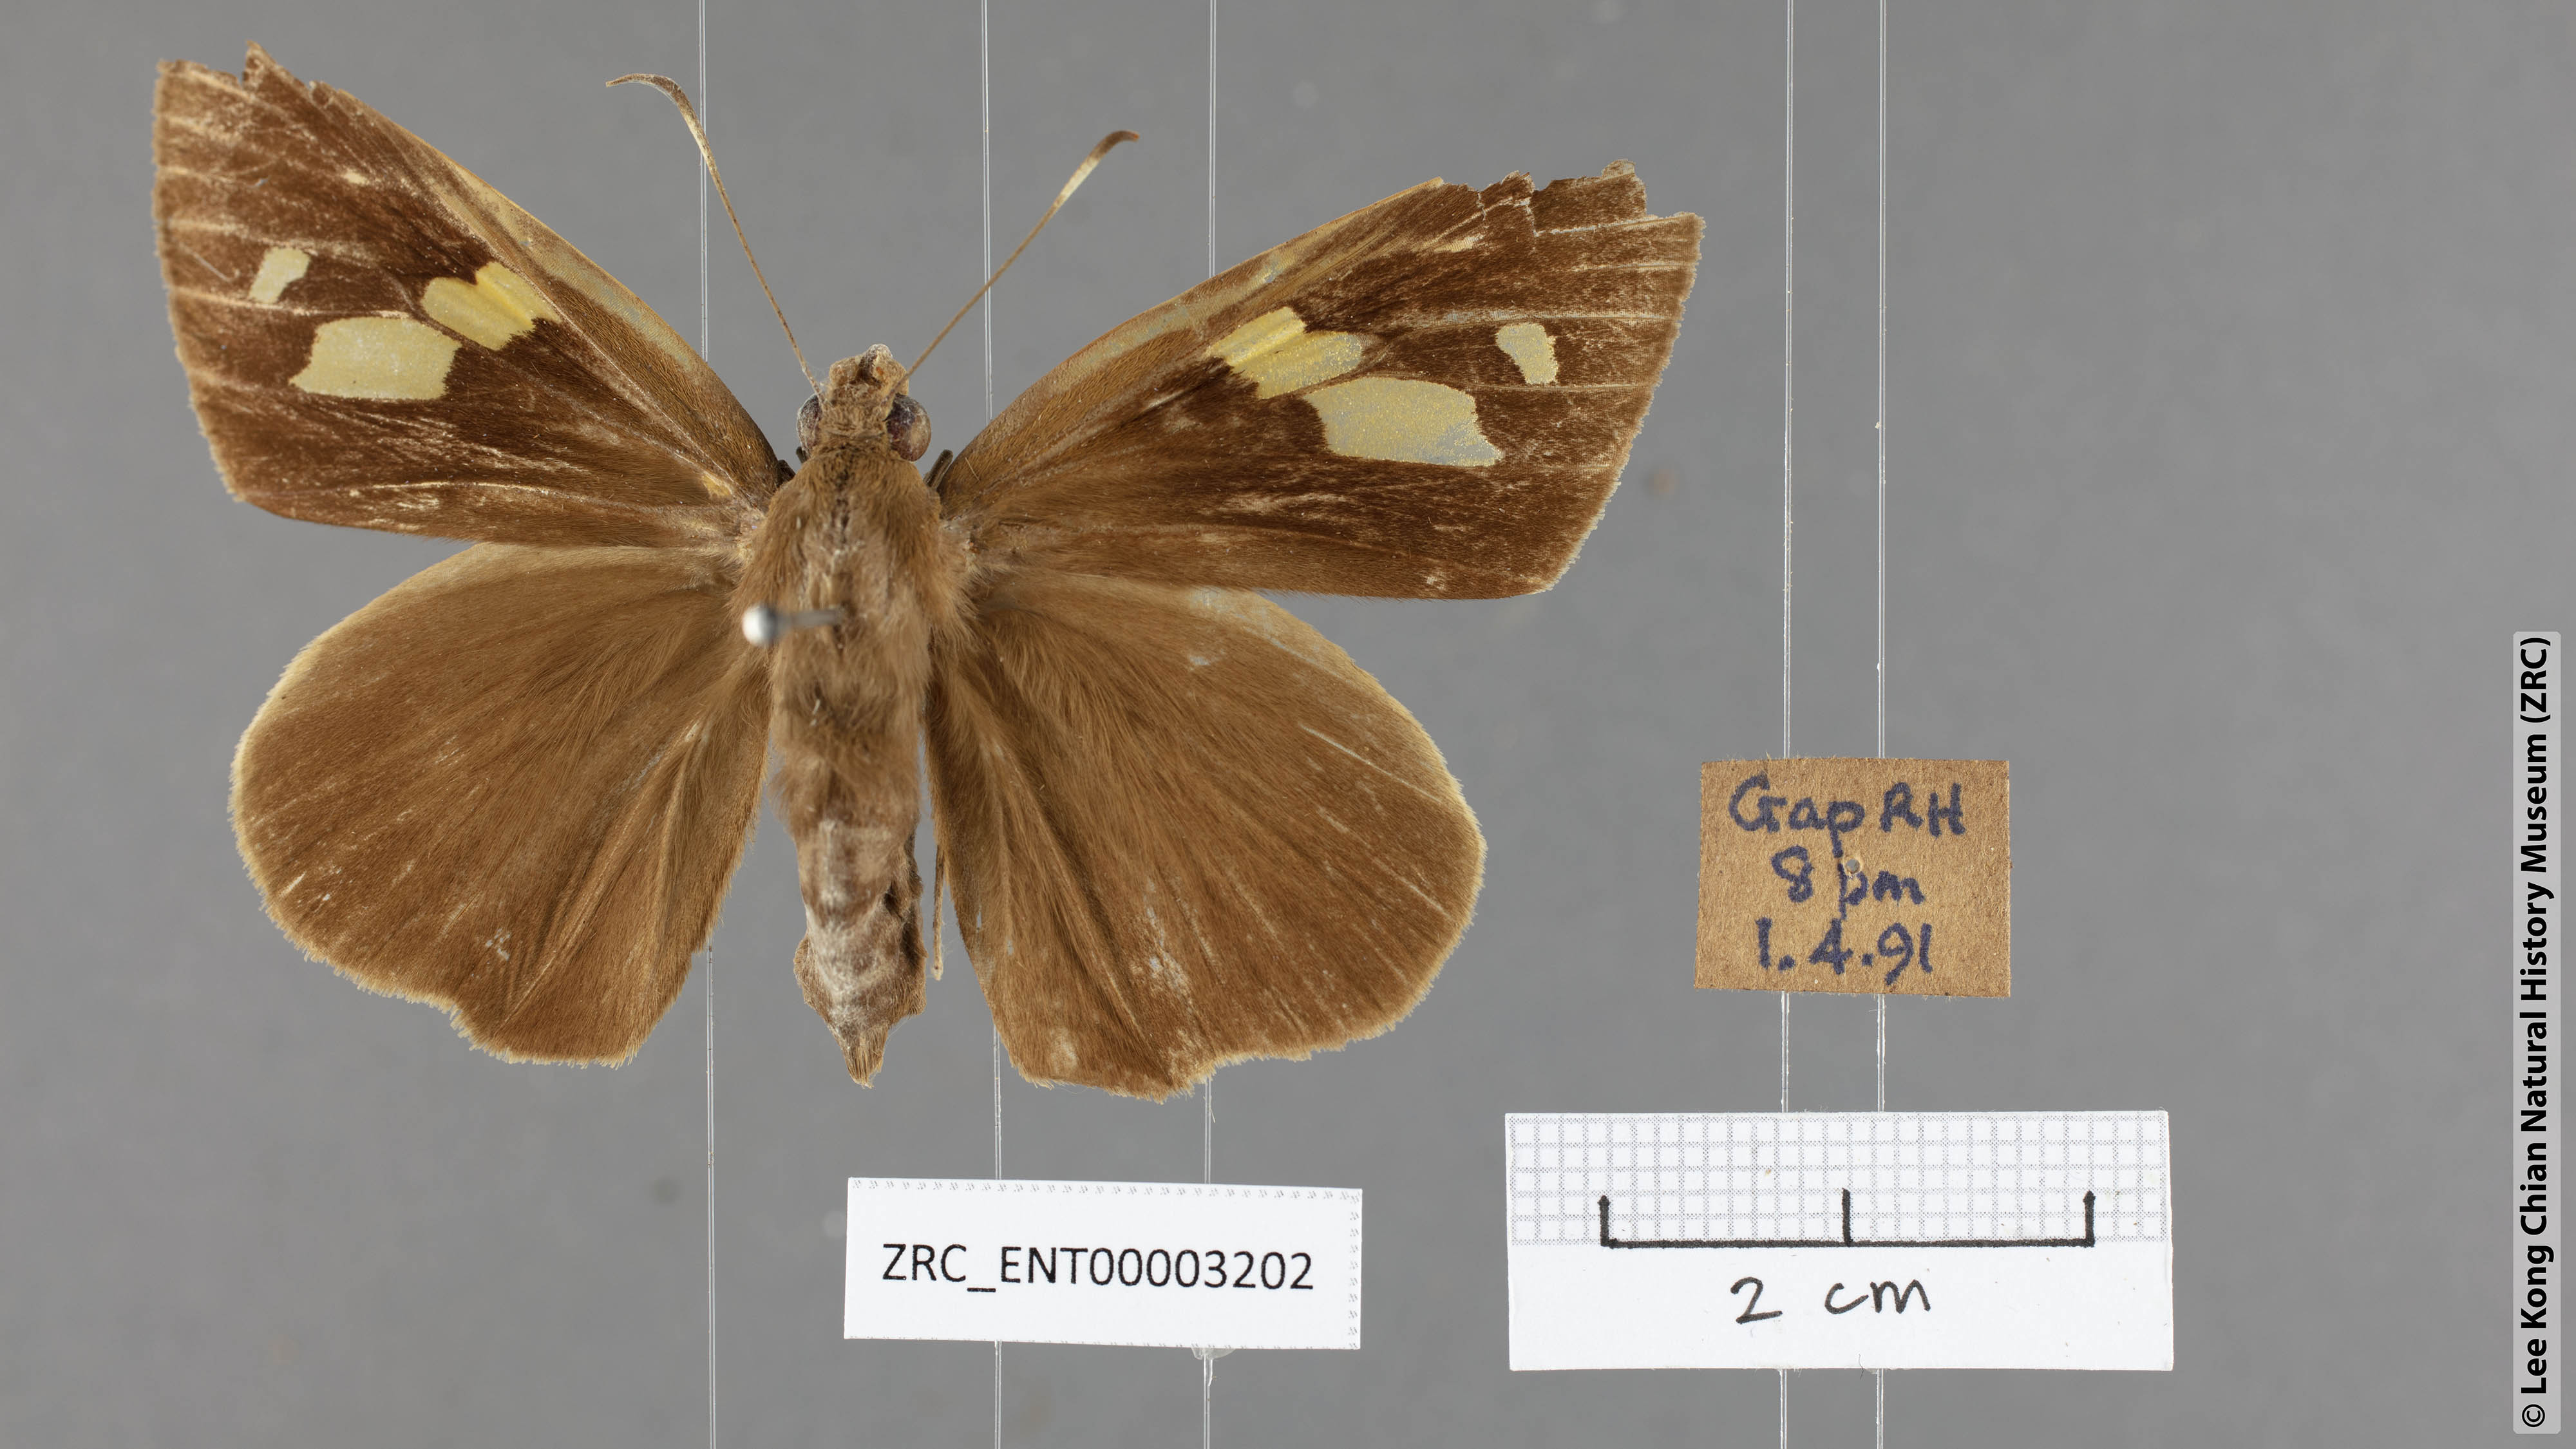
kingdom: Animalia
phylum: Arthropoda
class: Insecta
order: Lepidoptera
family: Hesperiidae
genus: Erionota
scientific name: Erionota torus
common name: Rounded palm-redeye
